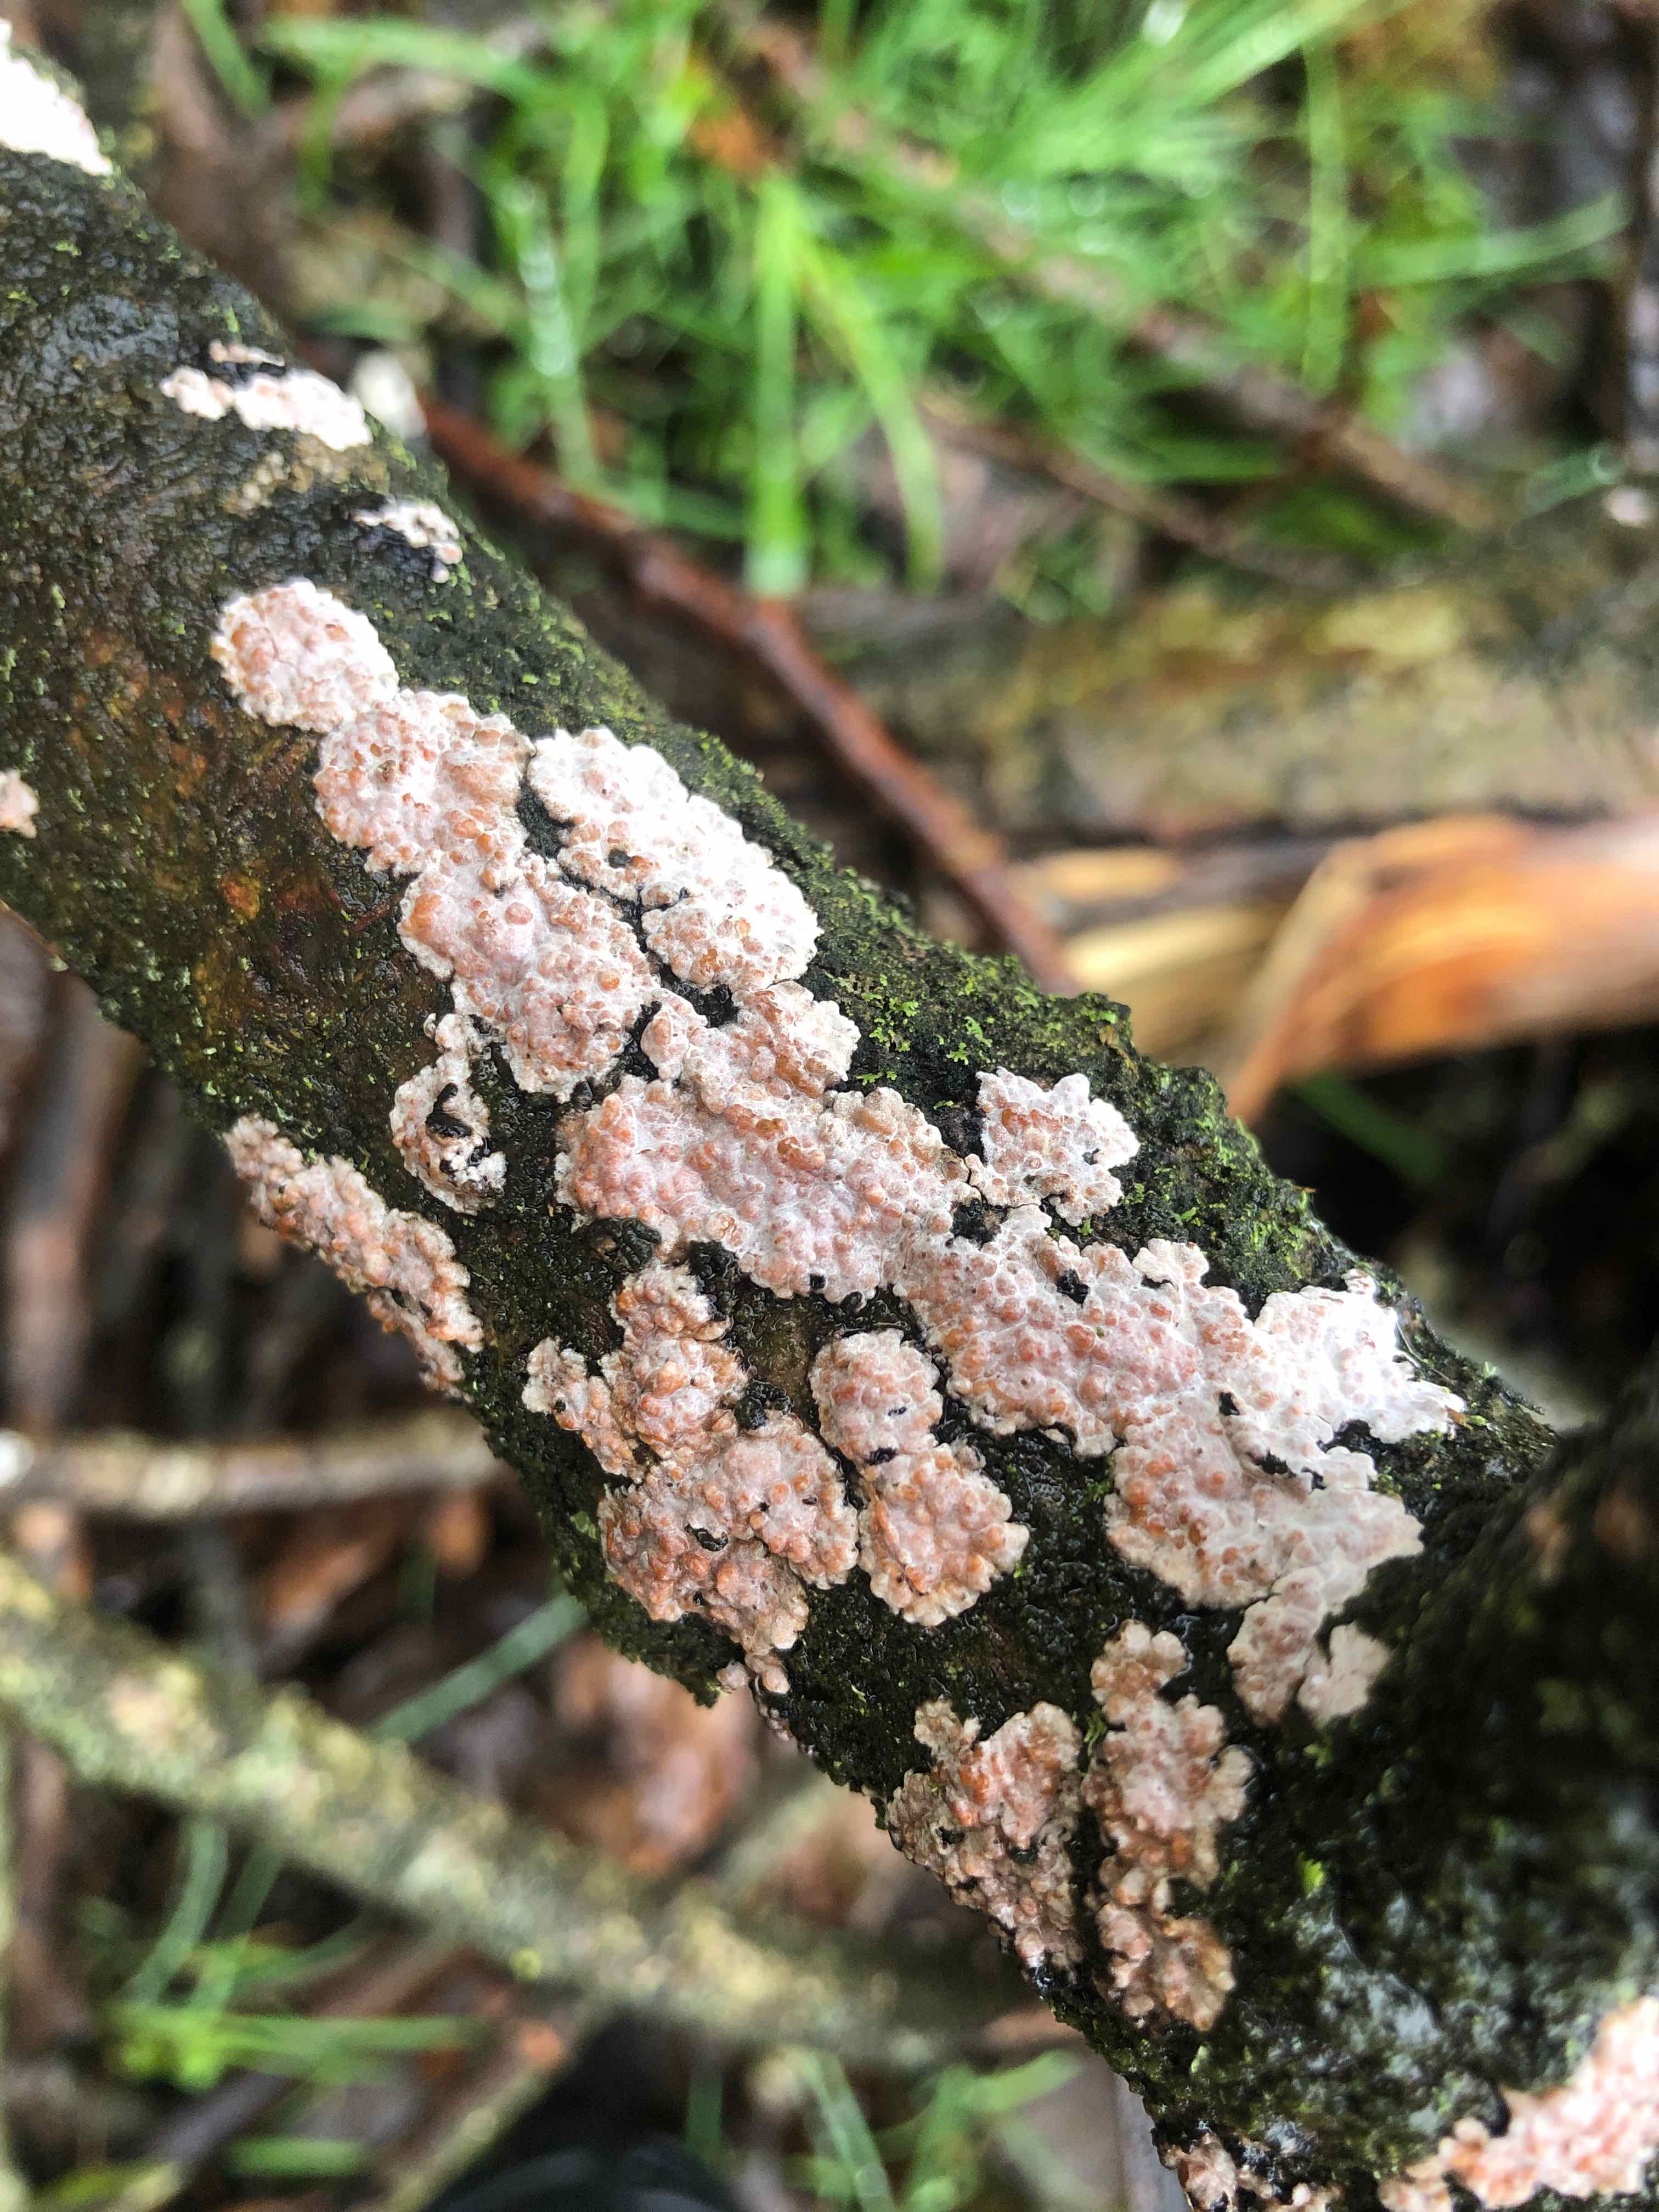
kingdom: Fungi
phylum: Basidiomycota
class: Agaricomycetes
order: Russulales
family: Peniophoraceae
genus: Peniophora
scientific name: Peniophora polygonia
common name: polygon-voksskind
